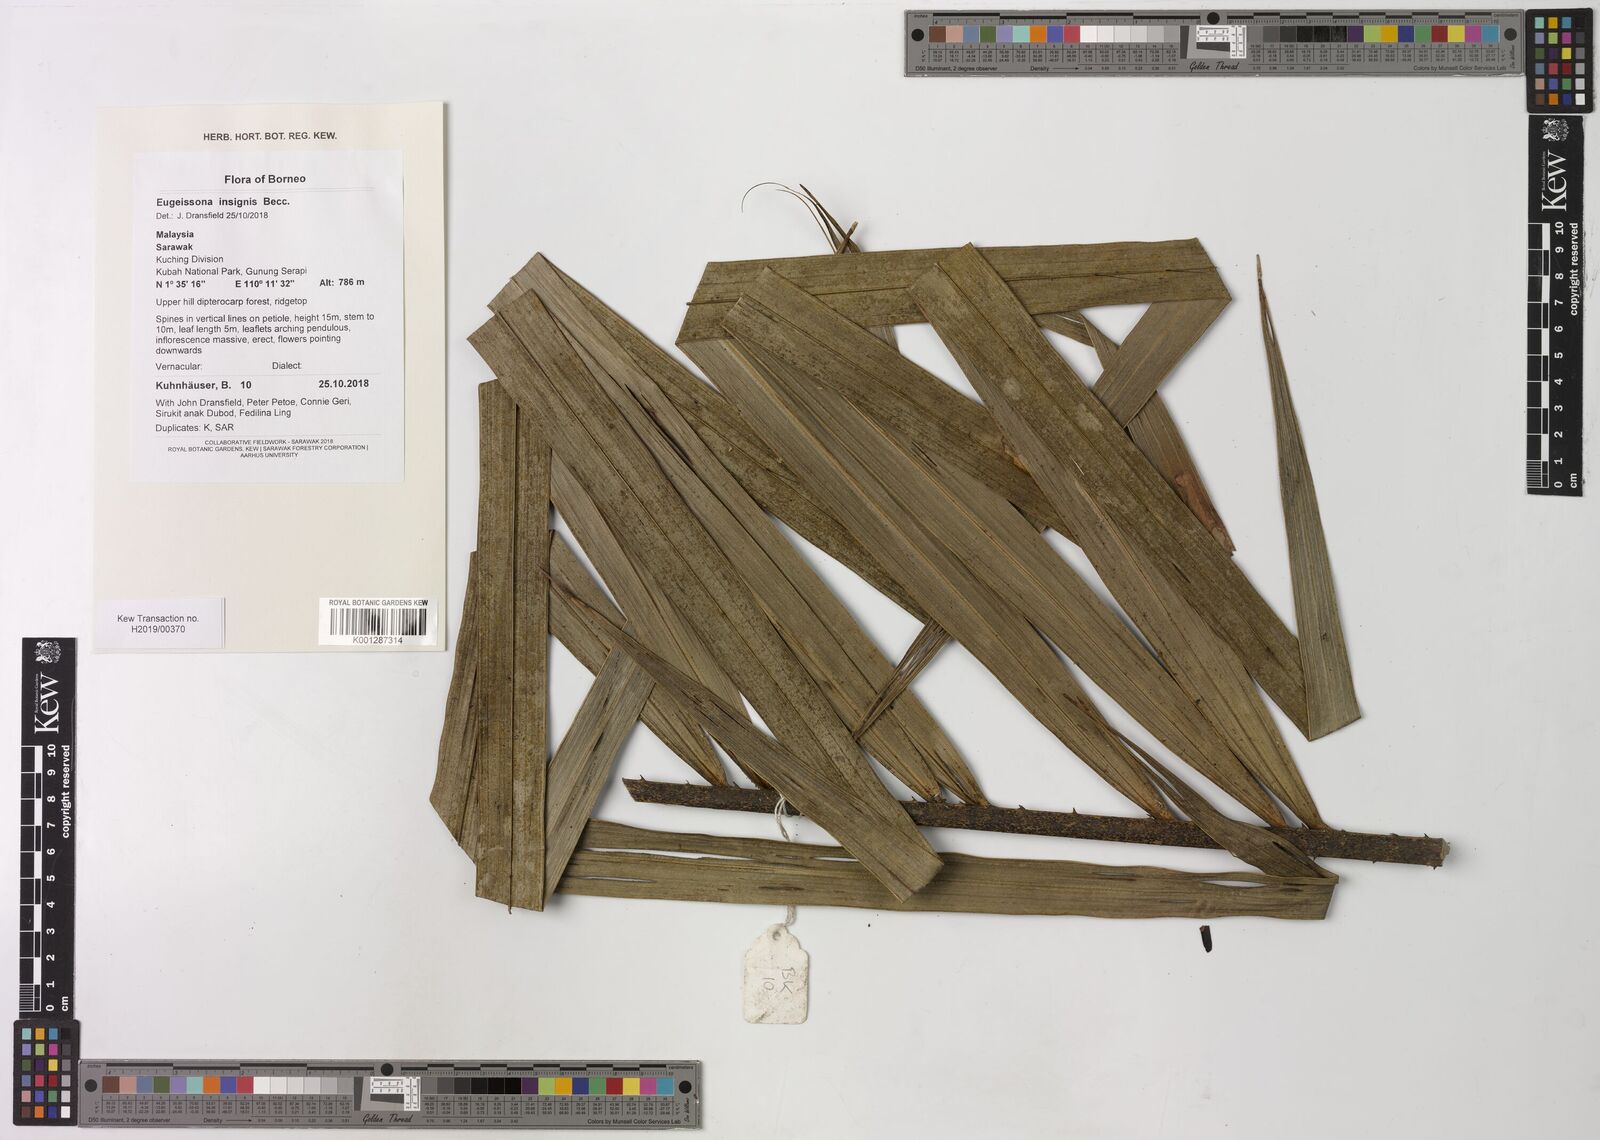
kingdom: Plantae
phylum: Tracheophyta
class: Liliopsida
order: Arecales
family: Arecaceae
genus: Eugeissona
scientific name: Eugeissona insignis
